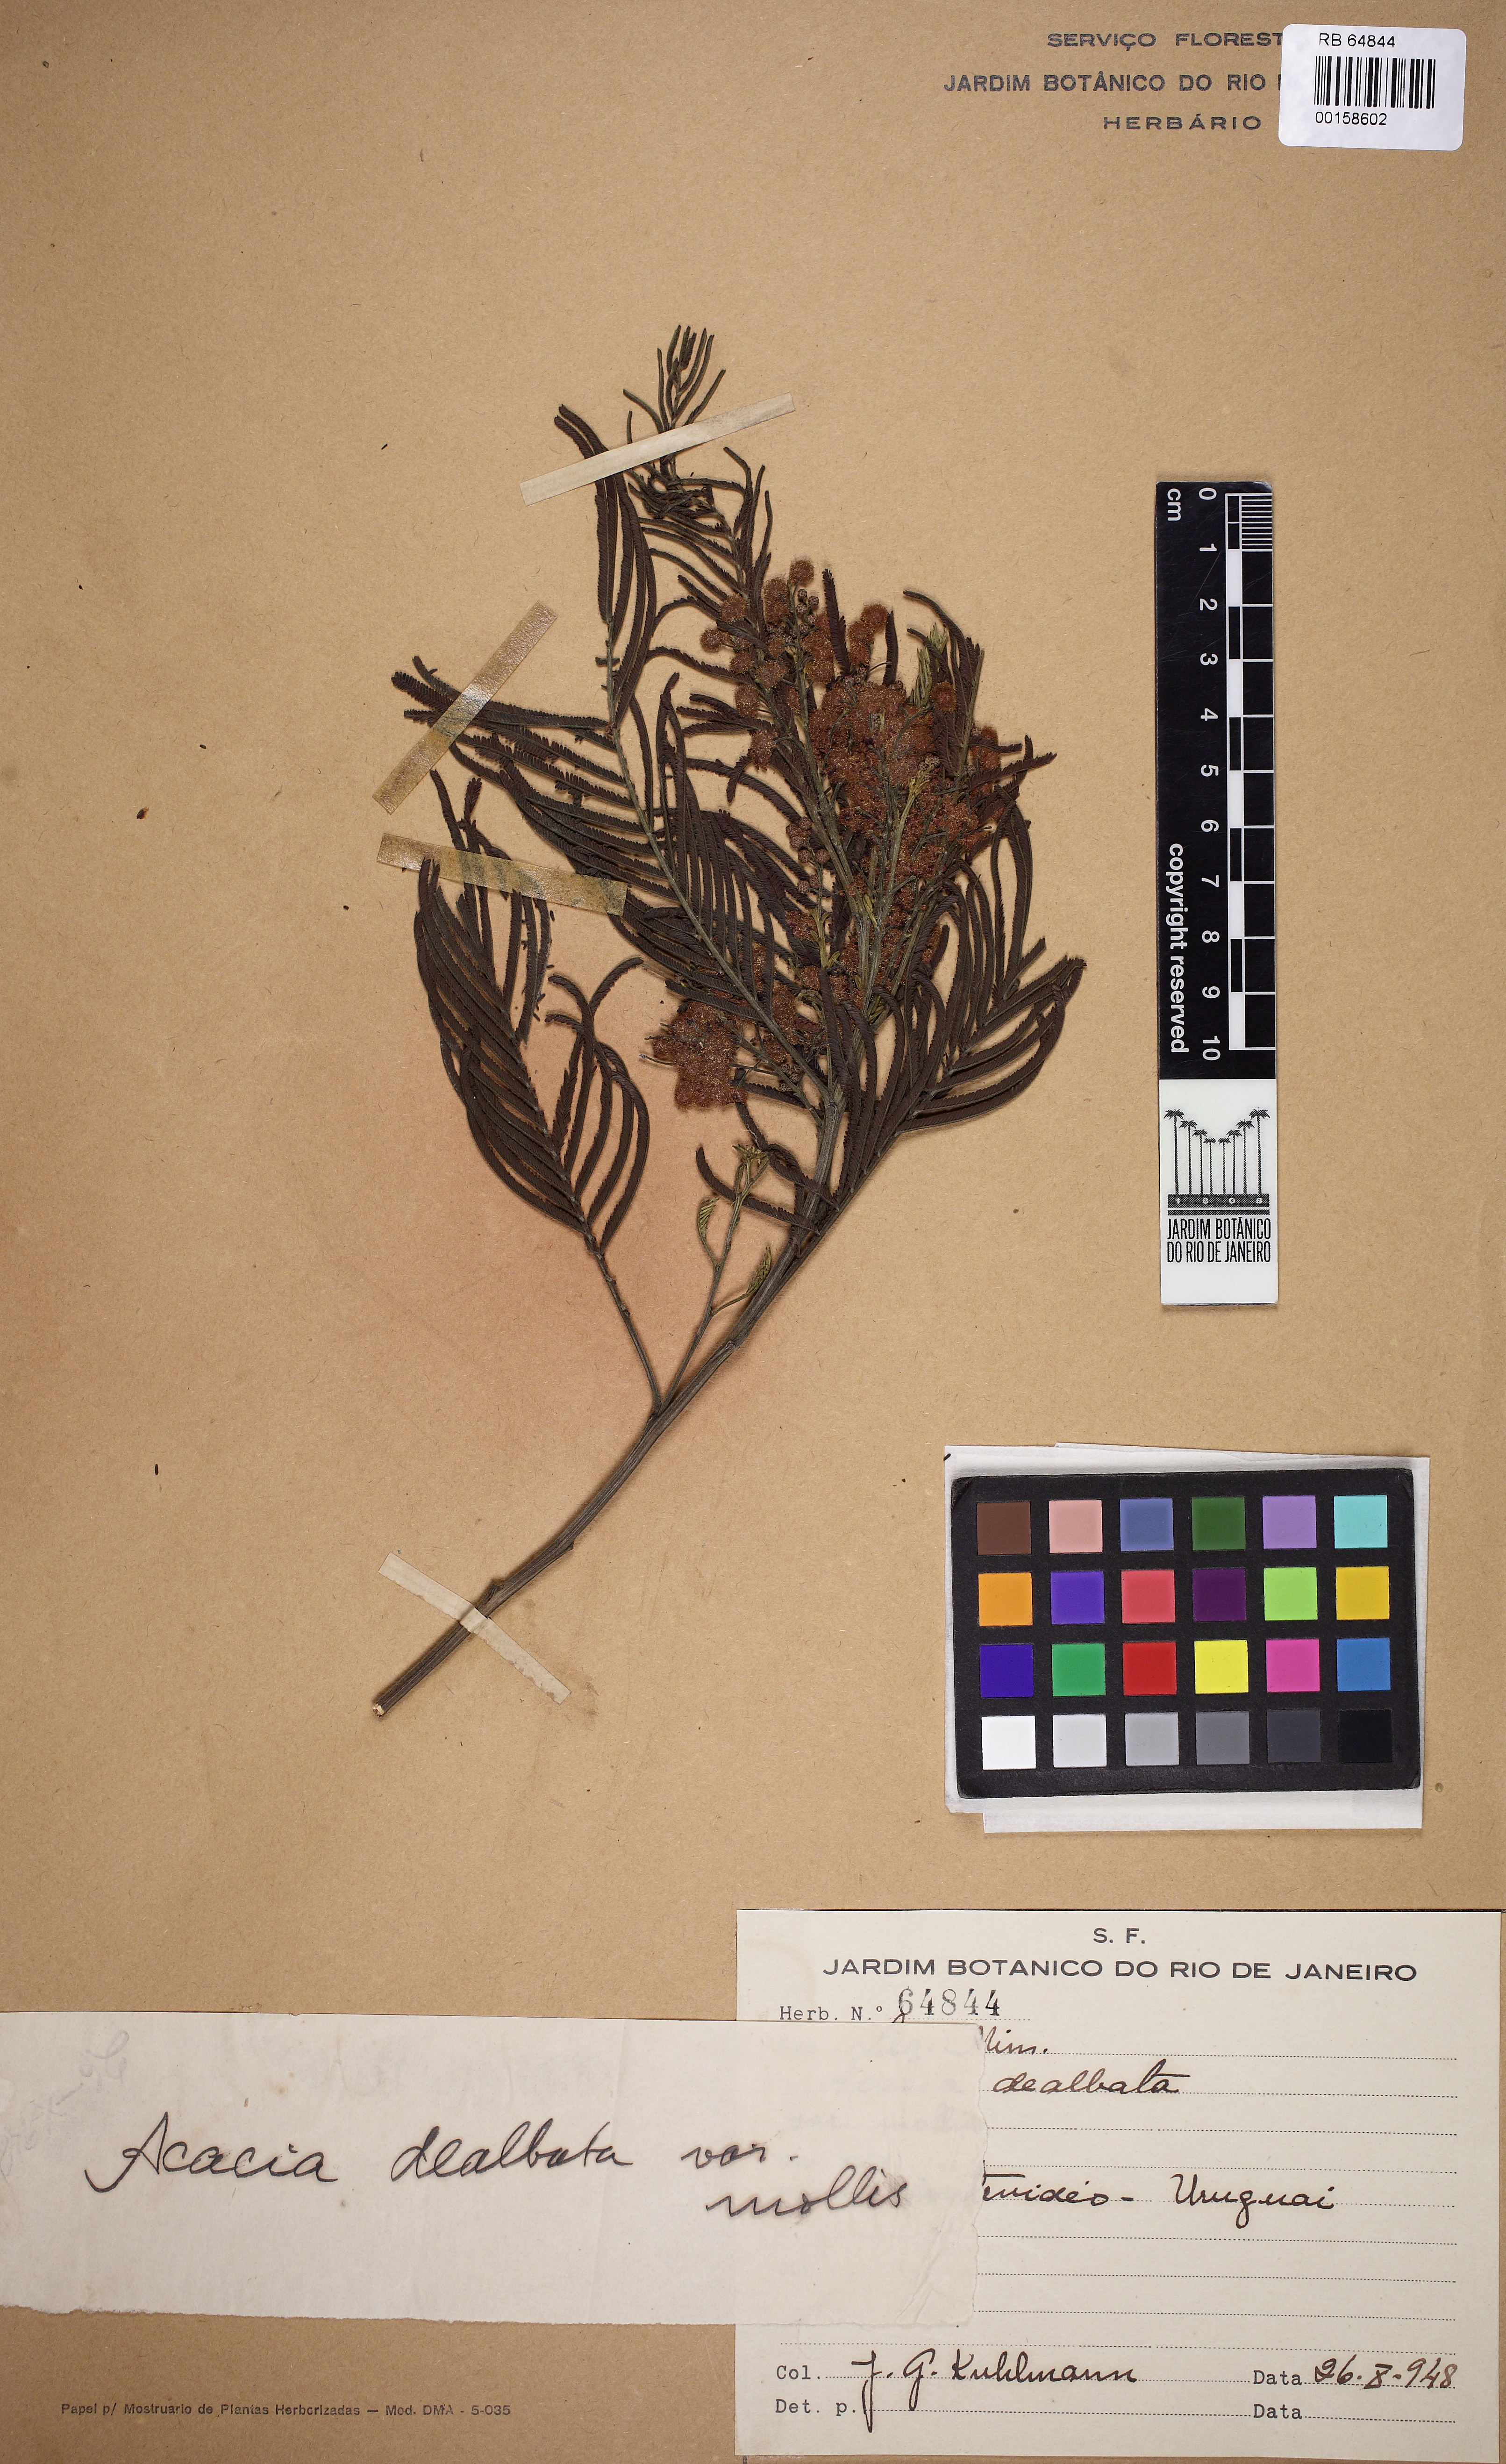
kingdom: Plantae
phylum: Tracheophyta
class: Magnoliopsida
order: Fabales
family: Fabaceae
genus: Acacia
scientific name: Acacia dealbata
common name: Silver wattle
